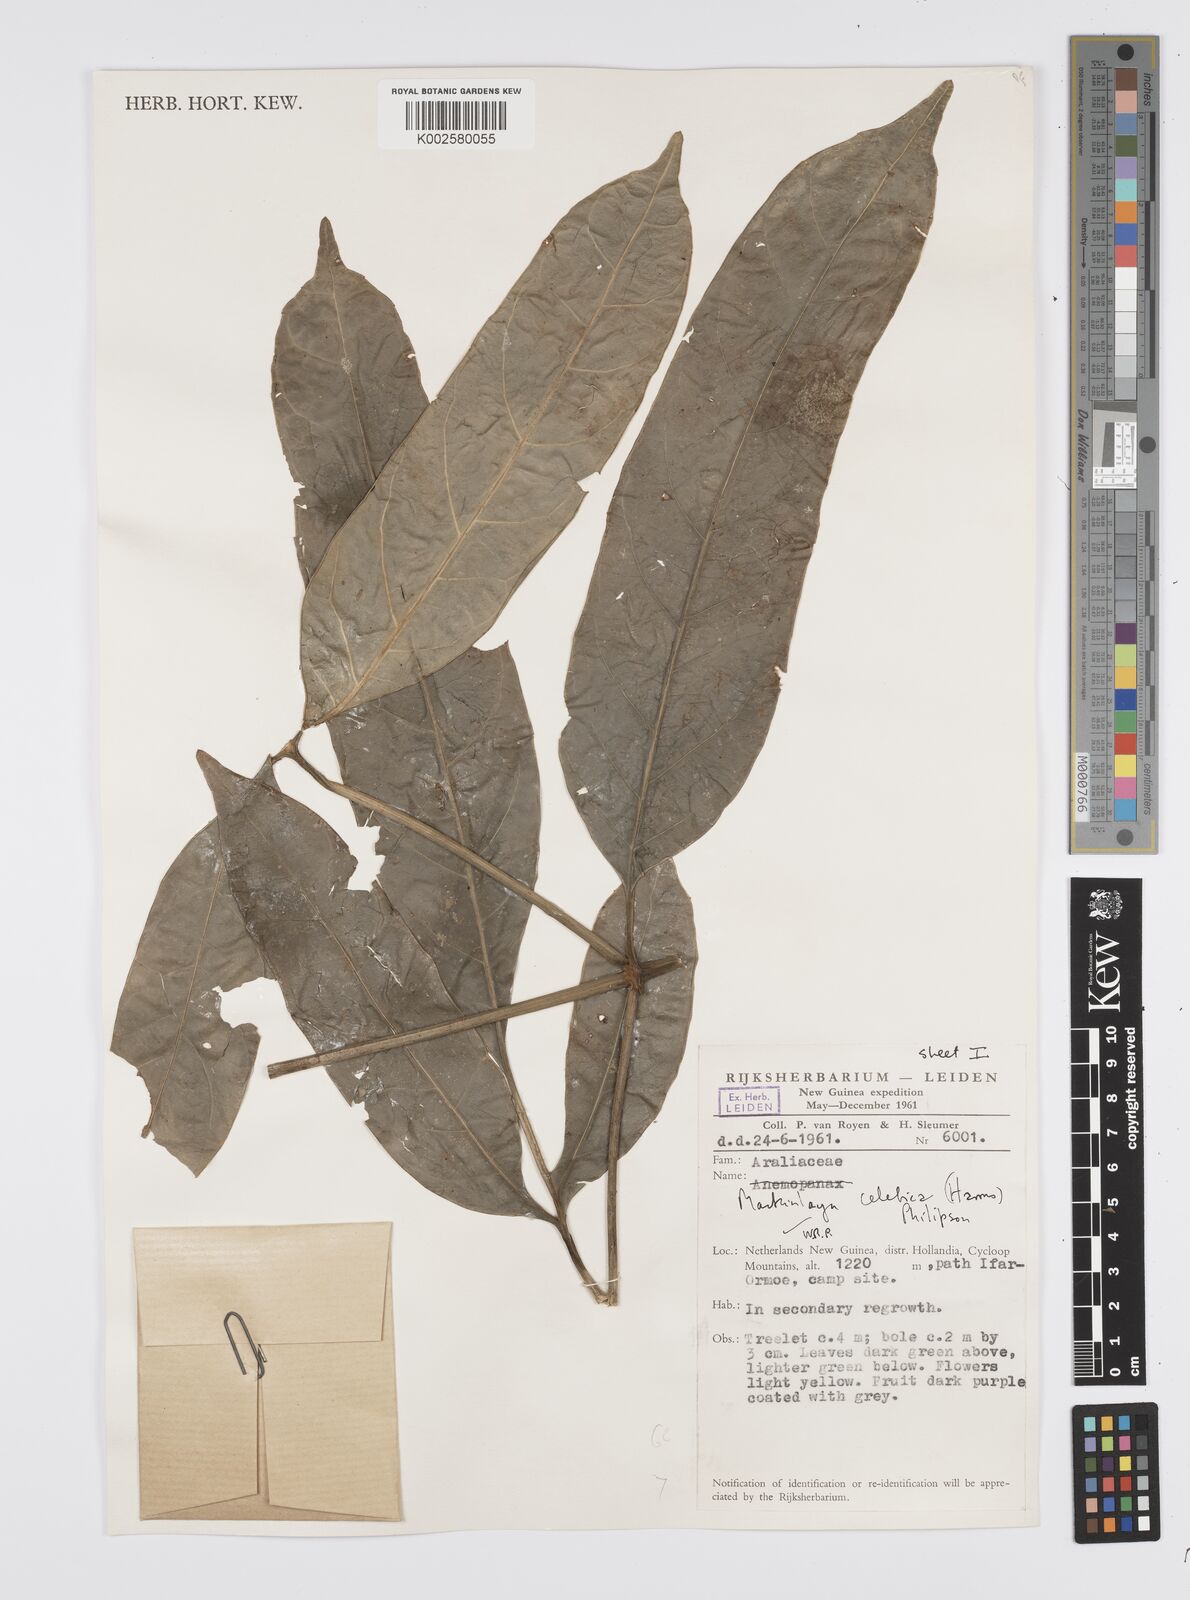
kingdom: Plantae
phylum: Tracheophyta
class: Magnoliopsida
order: Apiales
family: Apiaceae
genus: Mackinlaya
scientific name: Mackinlaya celebica
